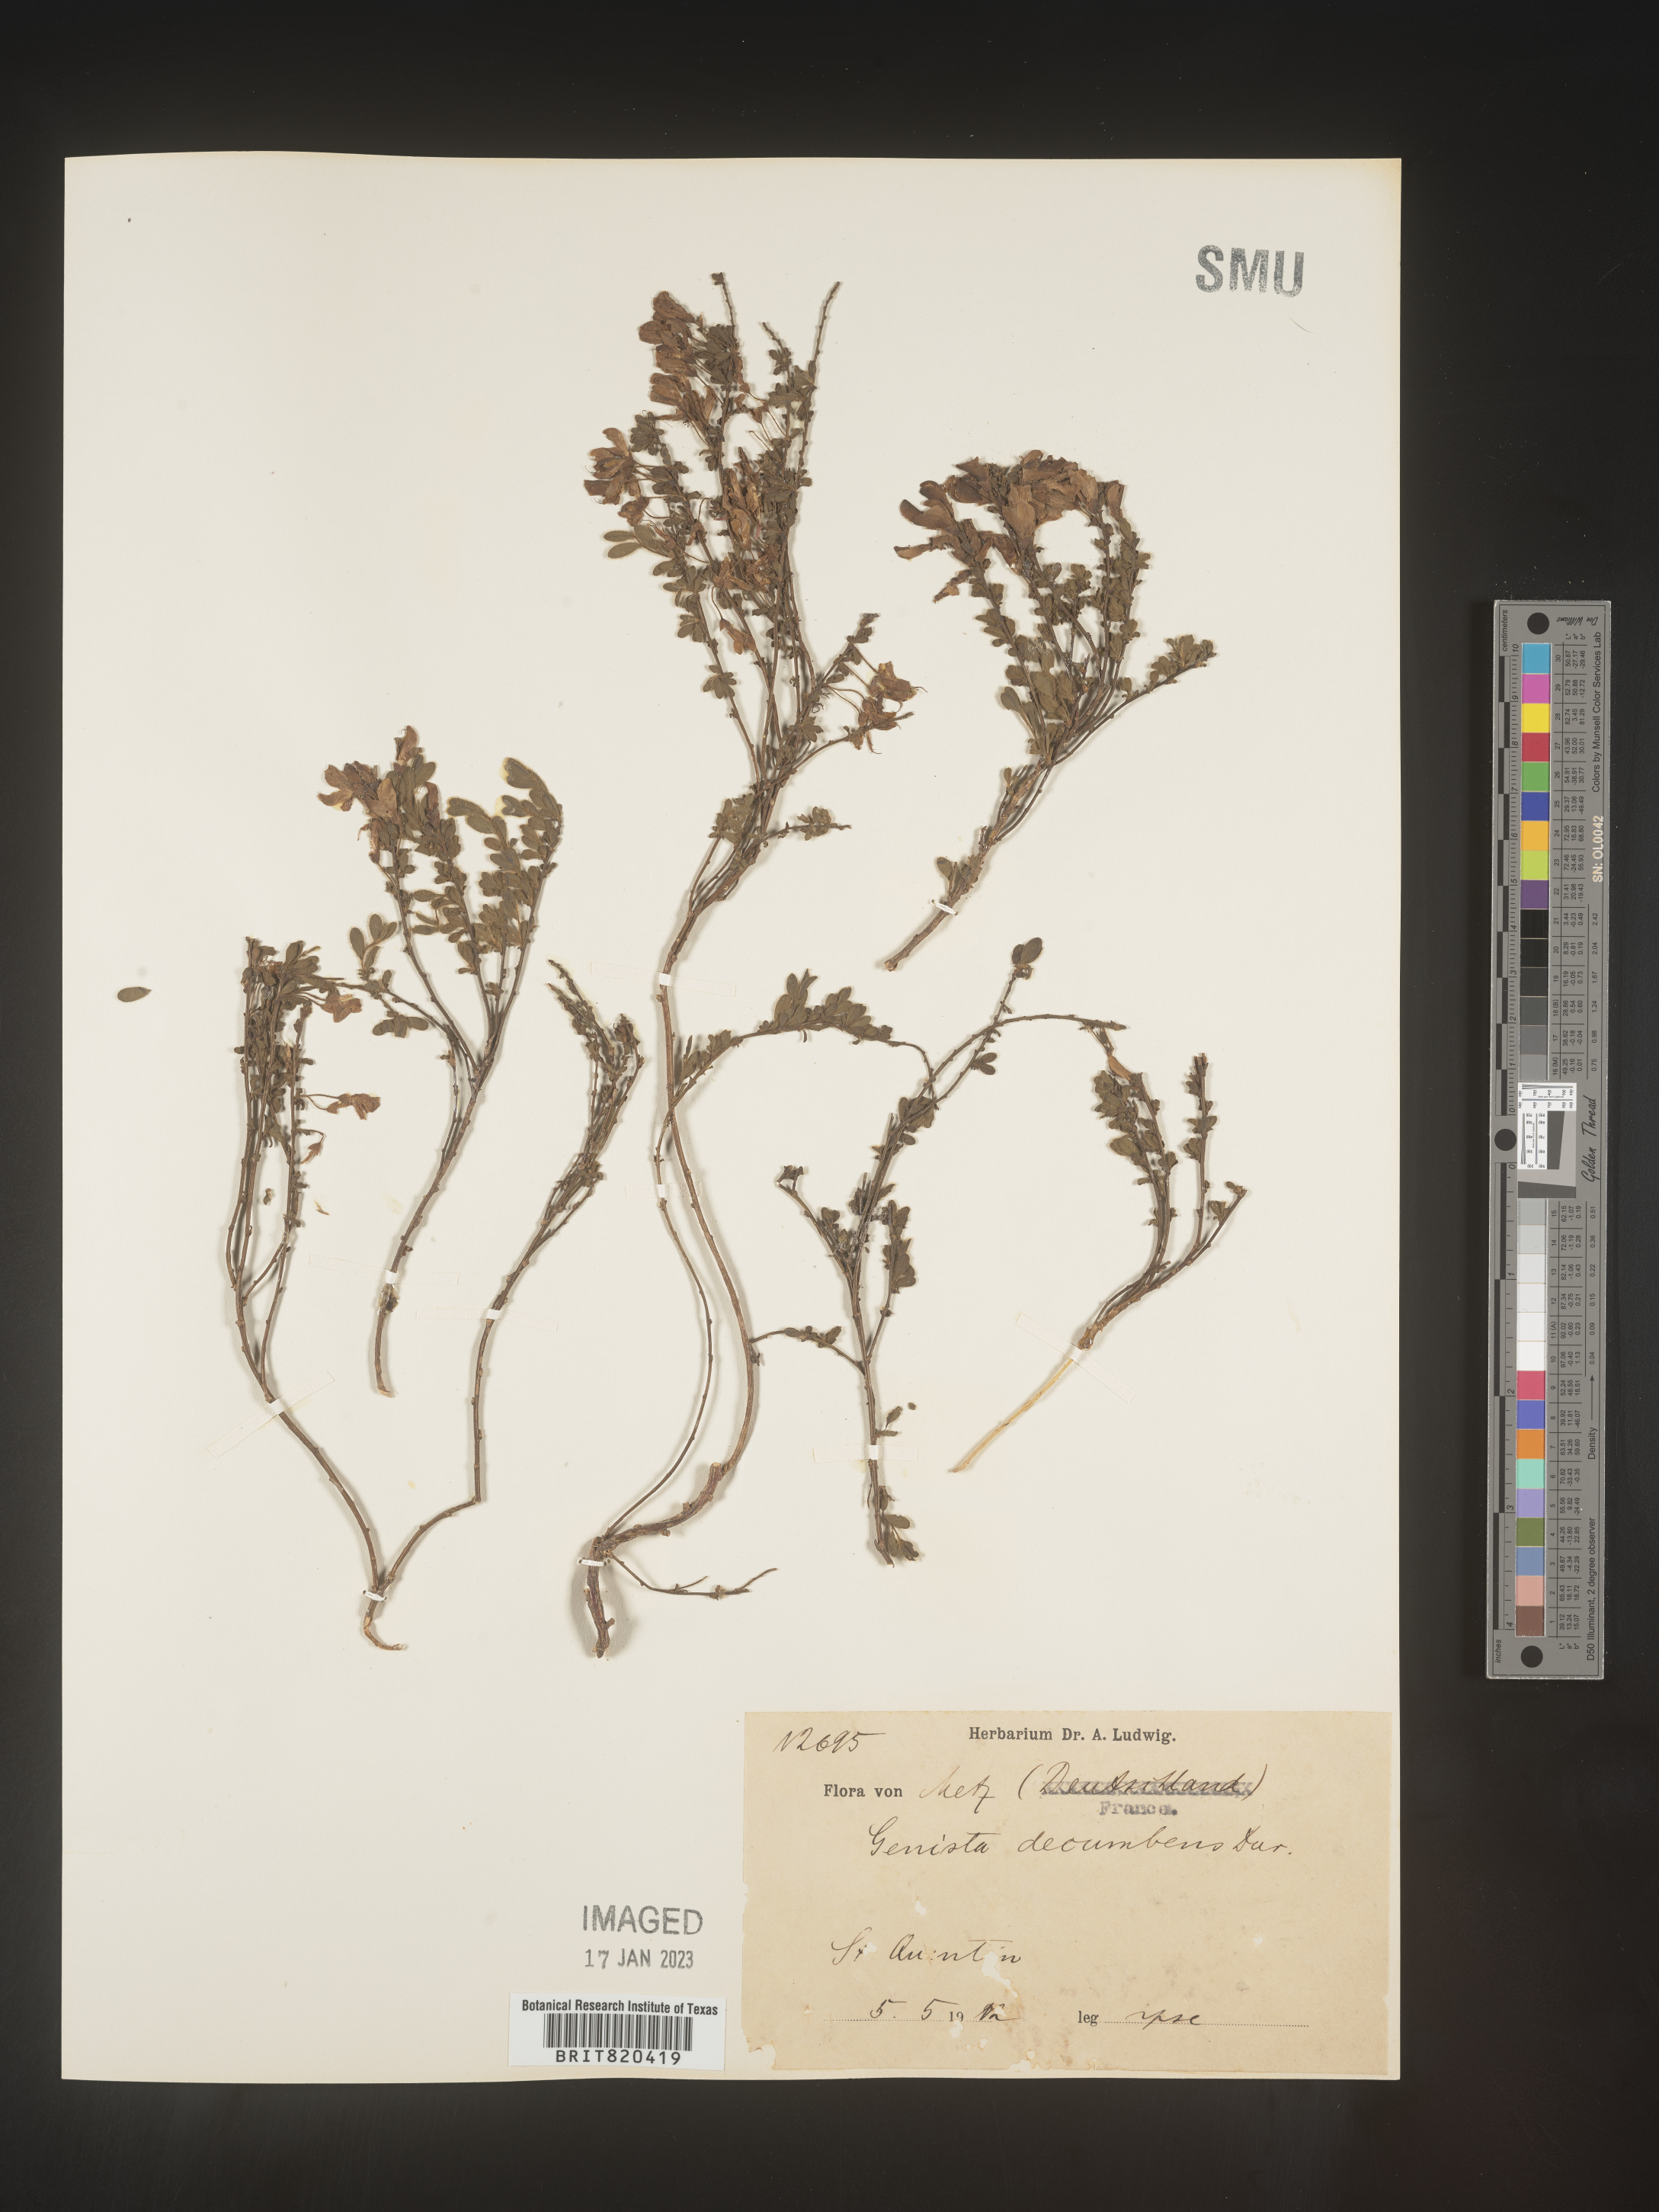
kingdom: Plantae
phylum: Tracheophyta
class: Magnoliopsida
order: Fabales
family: Fabaceae
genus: Genista
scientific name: Genista
